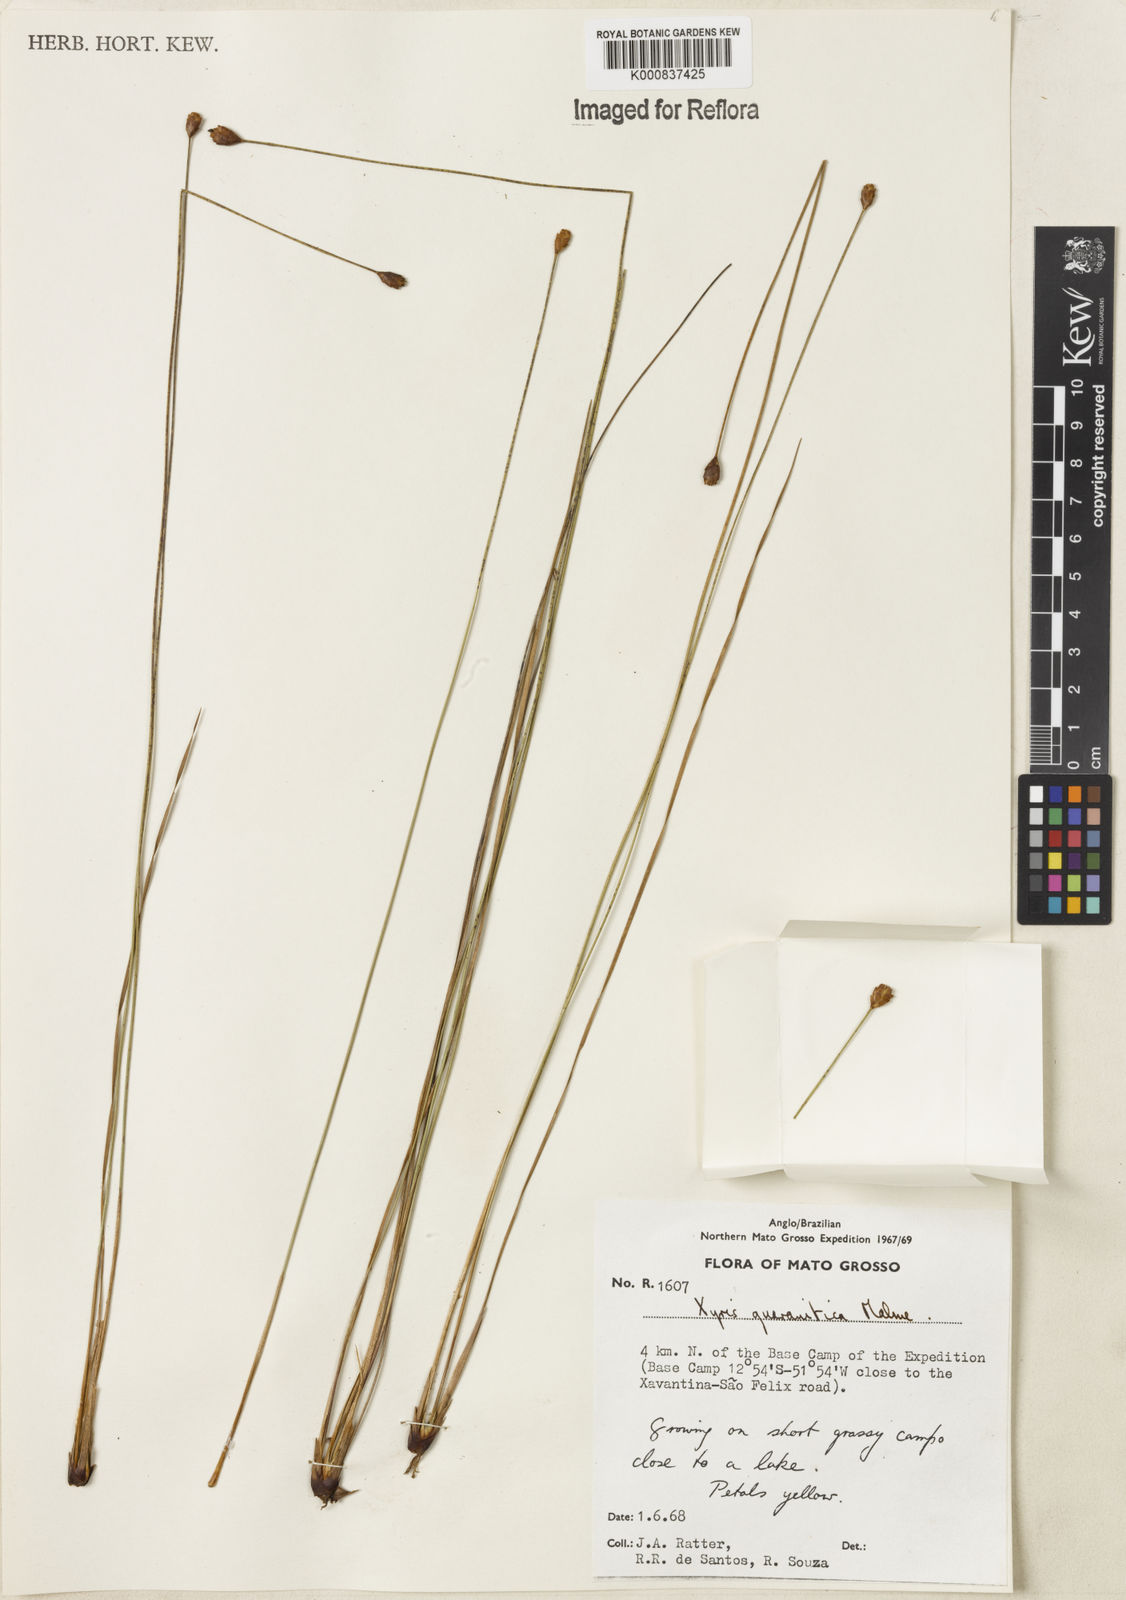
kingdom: Plantae
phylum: Tracheophyta
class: Liliopsida
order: Poales
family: Xyridaceae
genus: Xyris
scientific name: Xyris guaranitica
